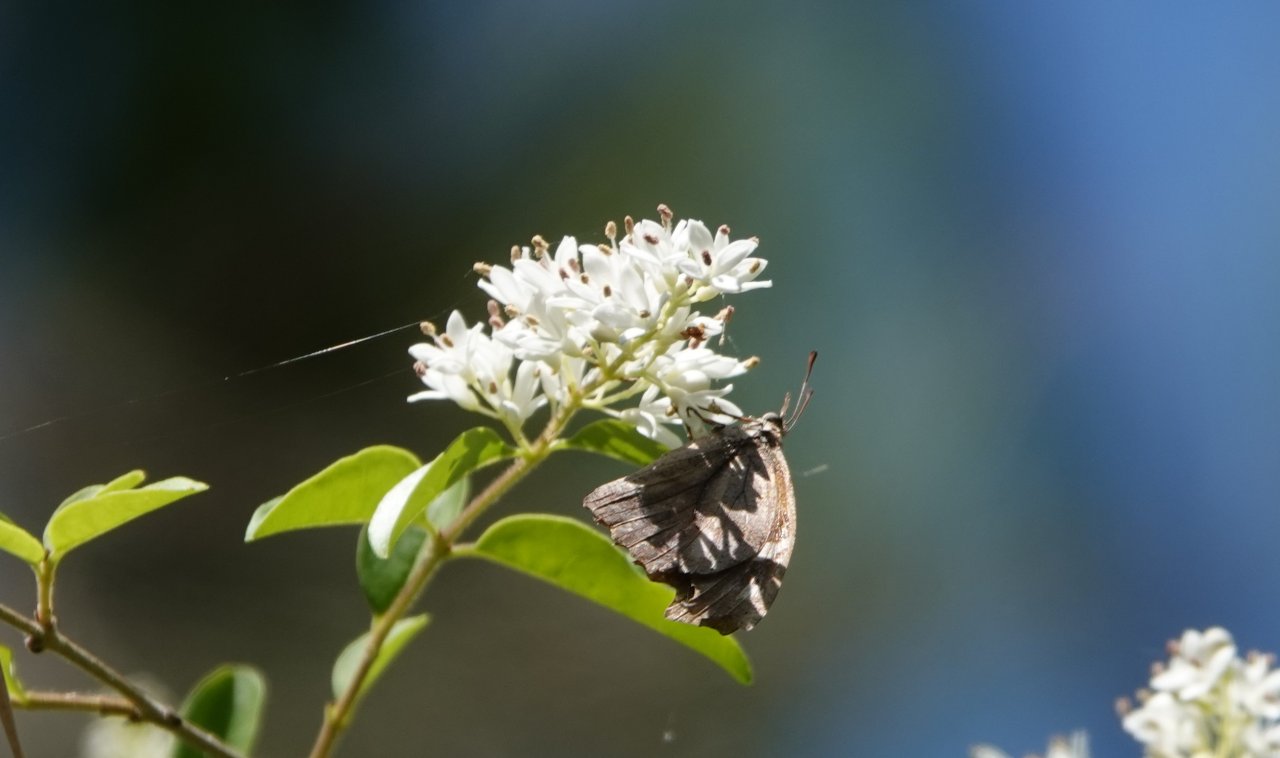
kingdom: Animalia
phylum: Arthropoda
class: Insecta
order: Lepidoptera
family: Nymphalidae
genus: Libytheana
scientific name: Libytheana carinenta
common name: American Snout
